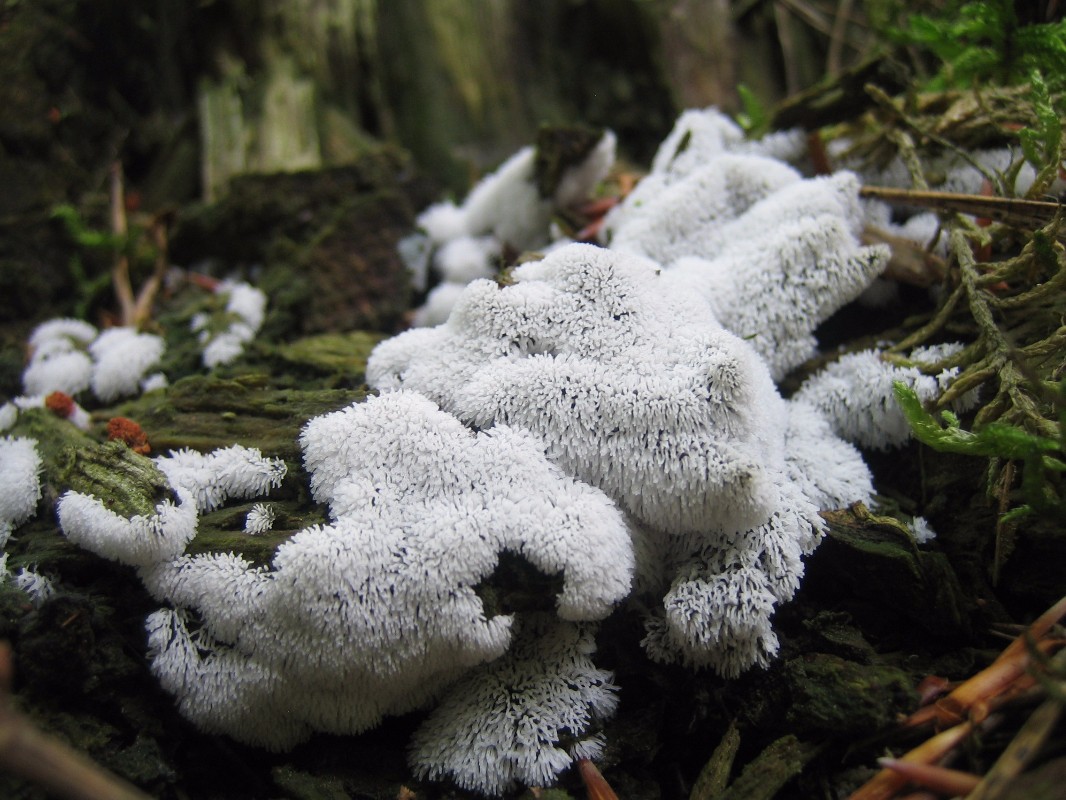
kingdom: Protozoa
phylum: Mycetozoa
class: Protosteliomycetes
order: Ceratiomyxales
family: Ceratiomyxaceae
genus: Ceratiomyxa
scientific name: Ceratiomyxa fruticulosa
